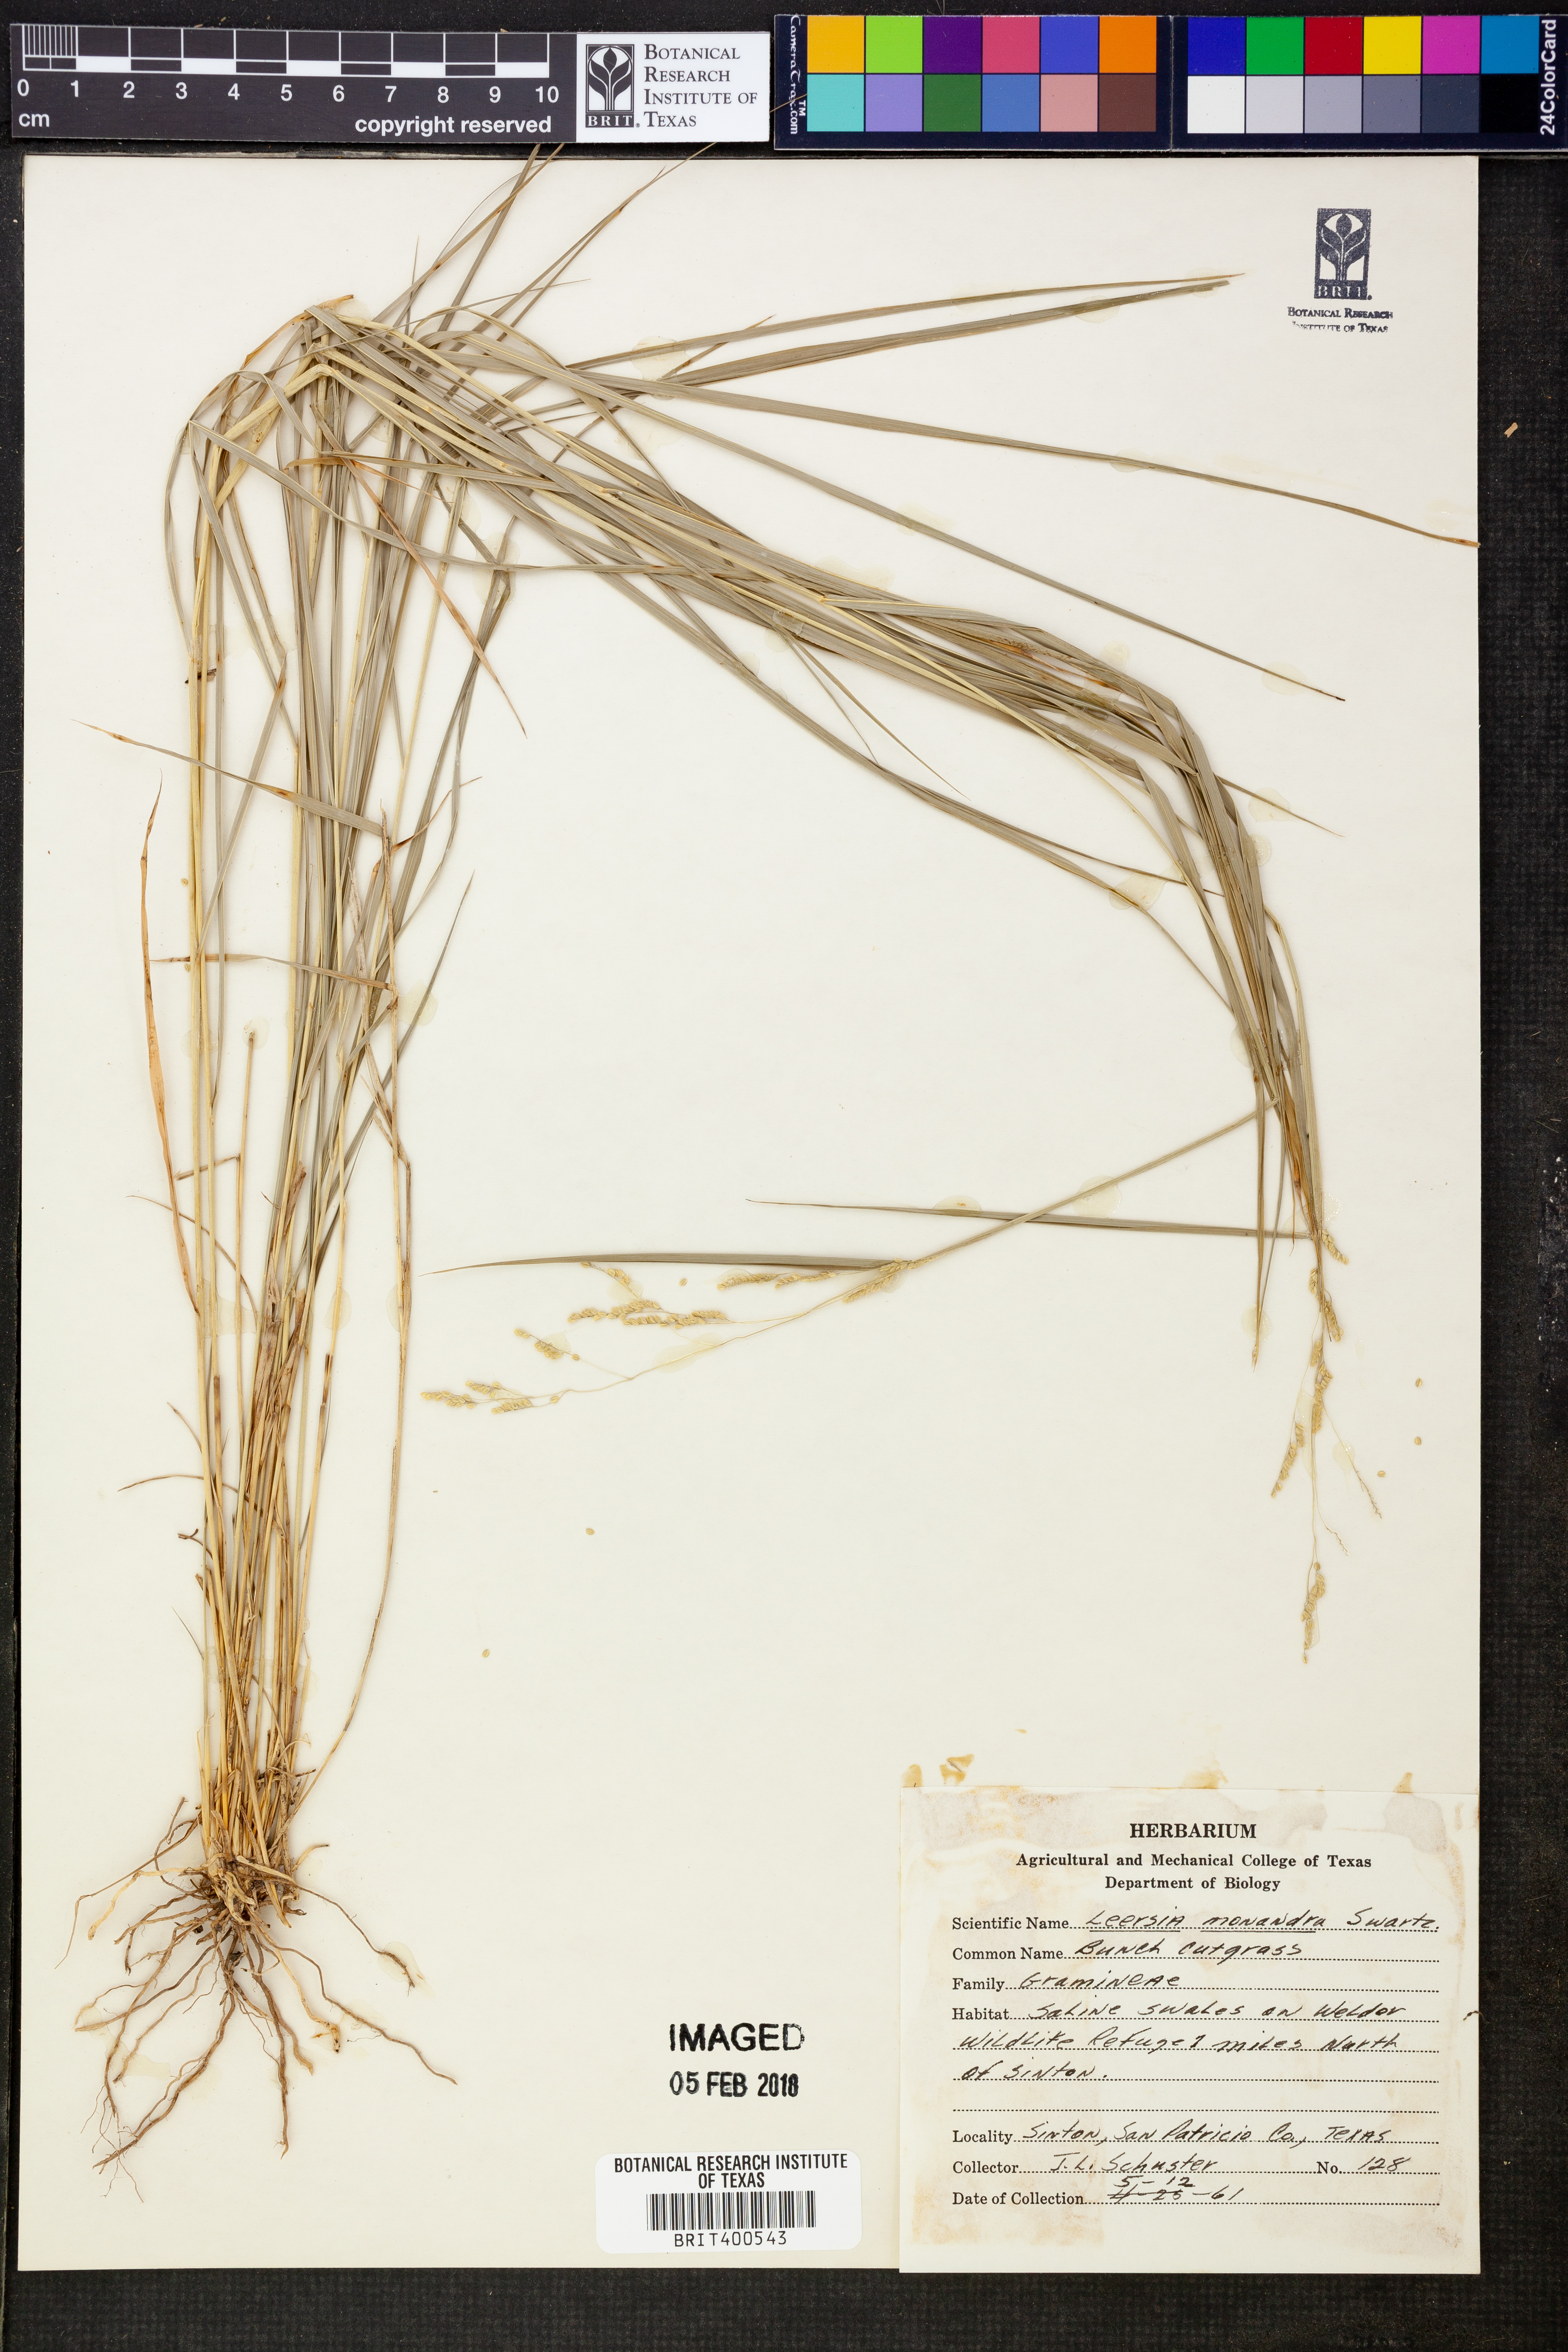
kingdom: Plantae
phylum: Tracheophyta
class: Liliopsida
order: Poales
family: Poaceae
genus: Leersia
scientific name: Leersia monandra
